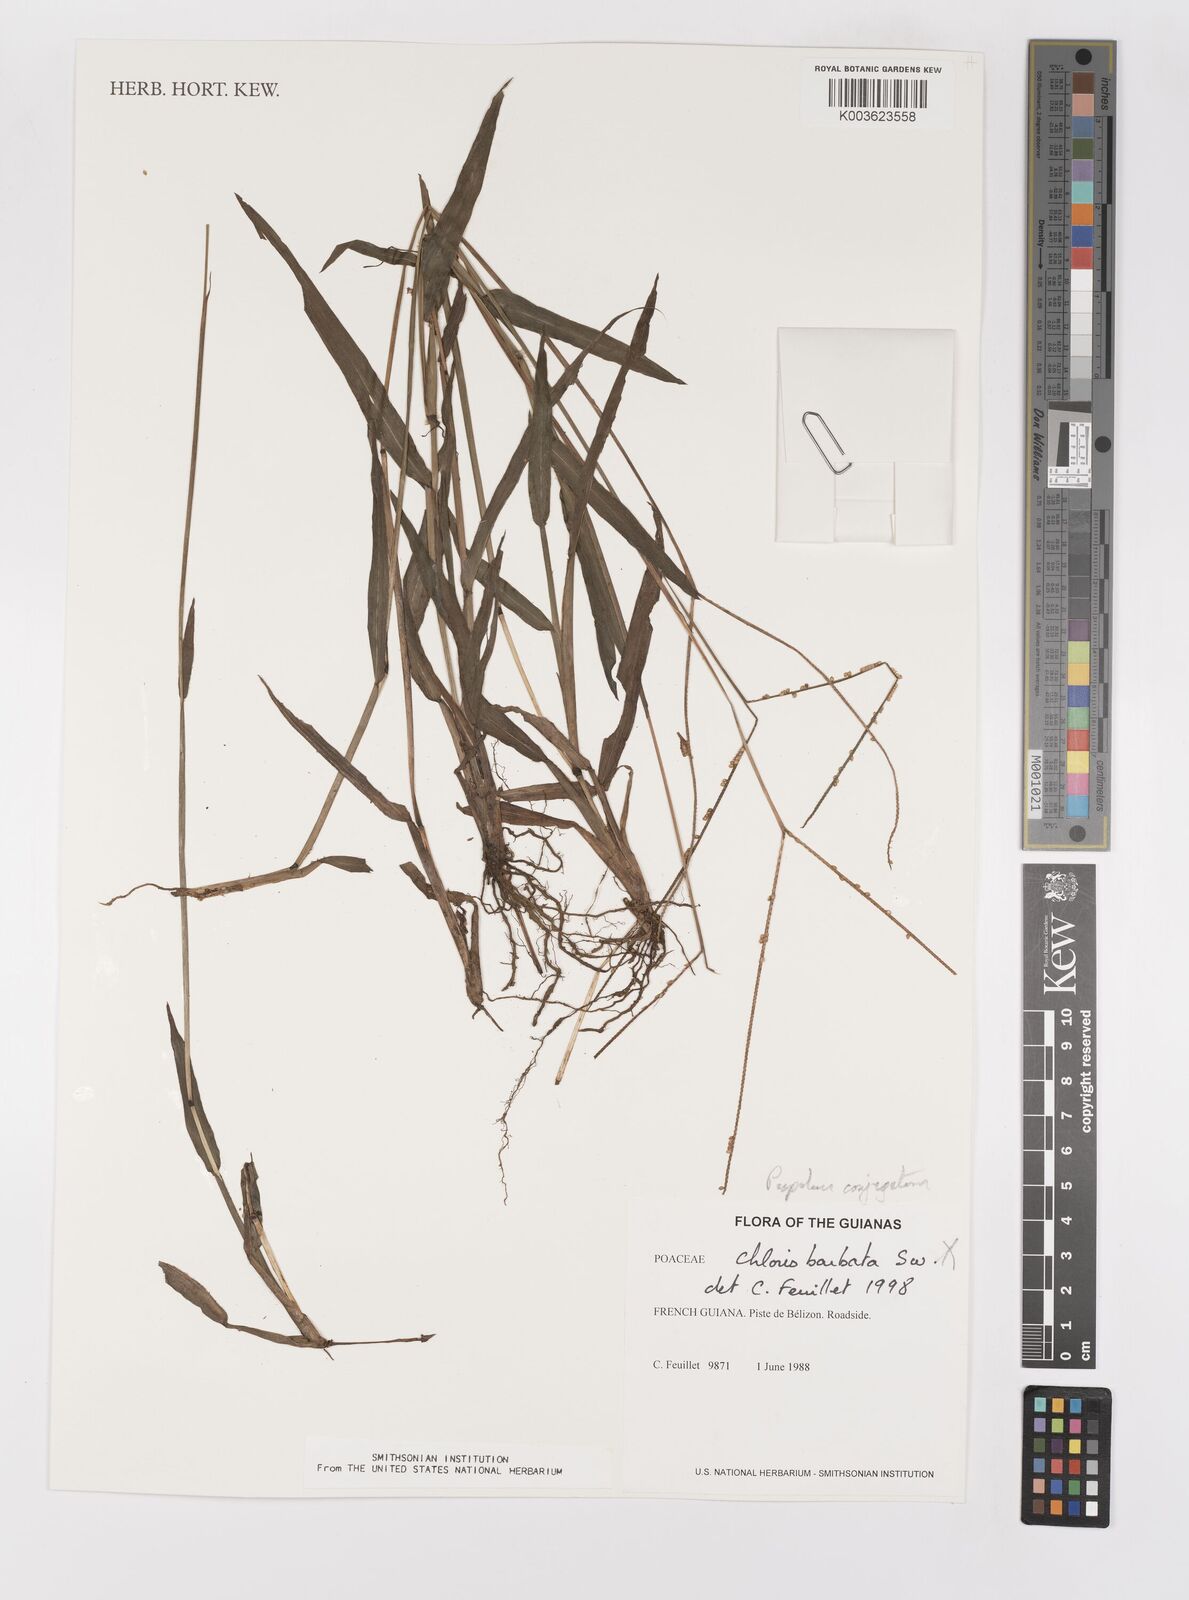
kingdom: Plantae
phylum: Tracheophyta
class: Liliopsida
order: Poales
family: Poaceae
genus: Paspalum
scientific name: Paspalum conjugatum
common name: Hilograss
